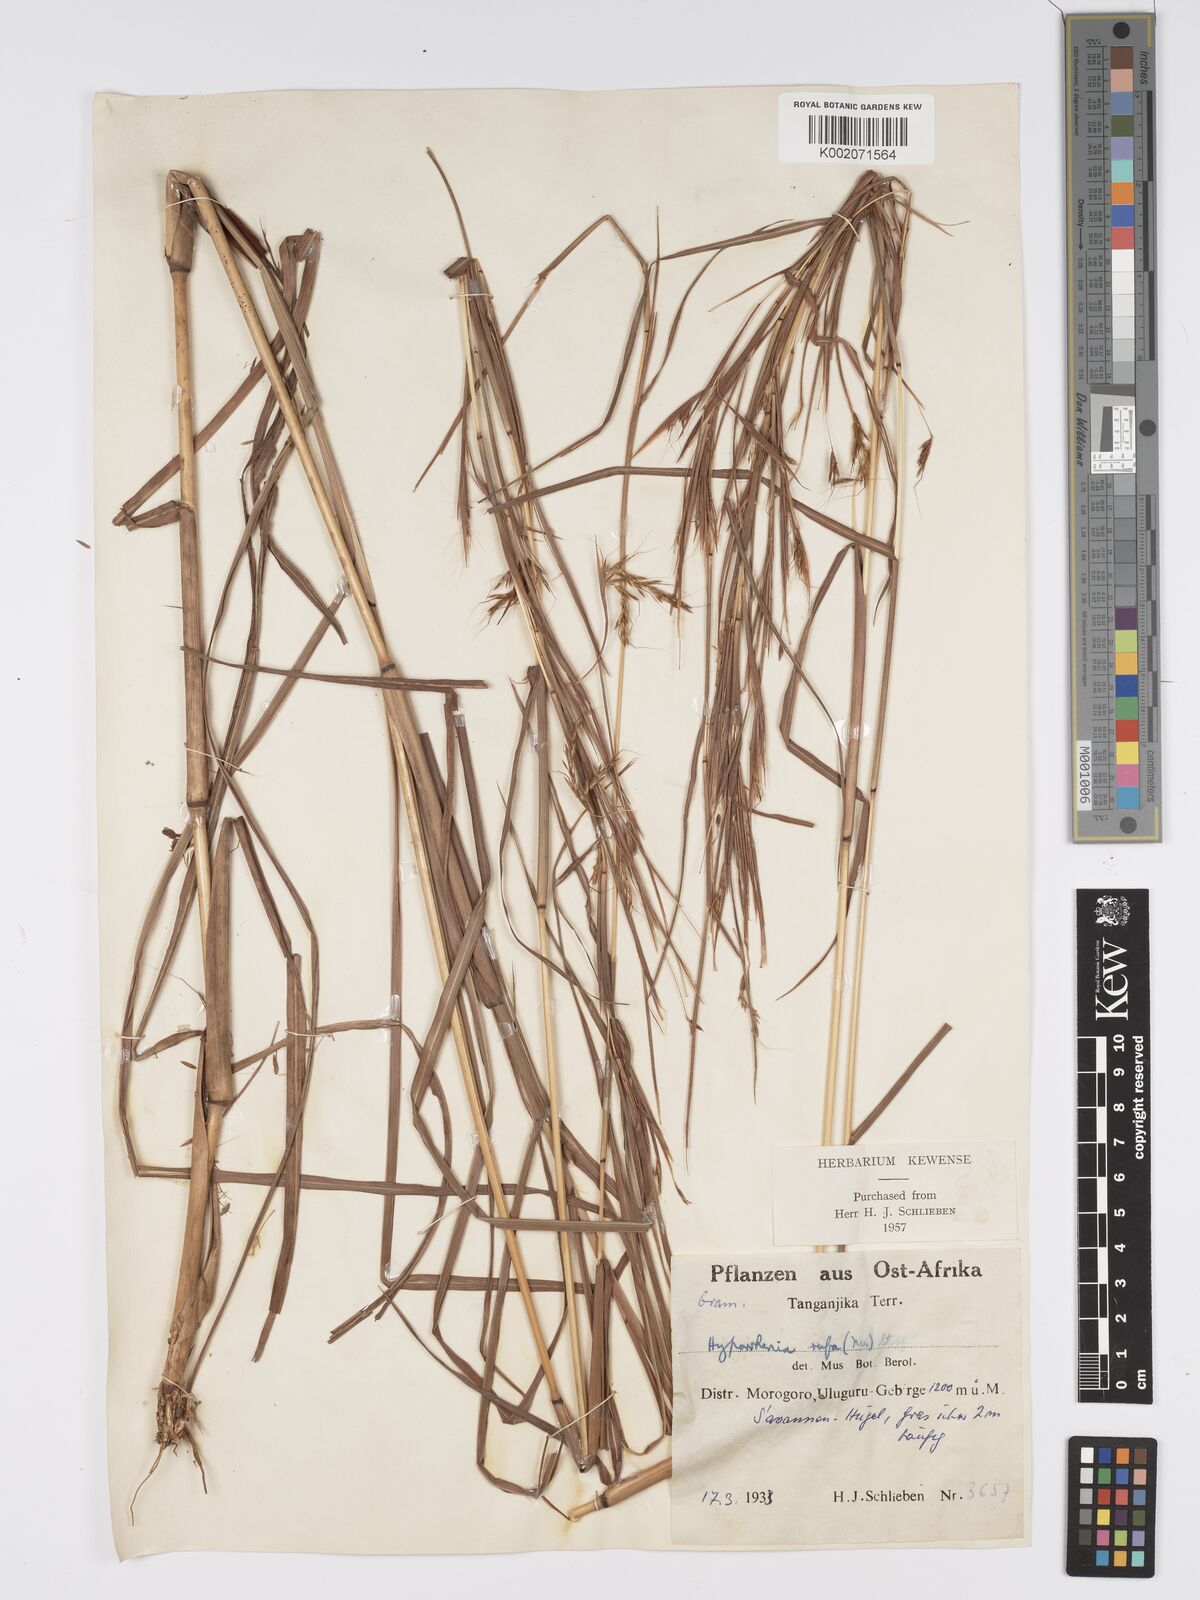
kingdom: Plantae
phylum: Tracheophyta
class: Liliopsida
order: Poales
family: Poaceae
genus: Hyparrhenia
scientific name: Hyparrhenia rufa
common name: Jaraguagrass
